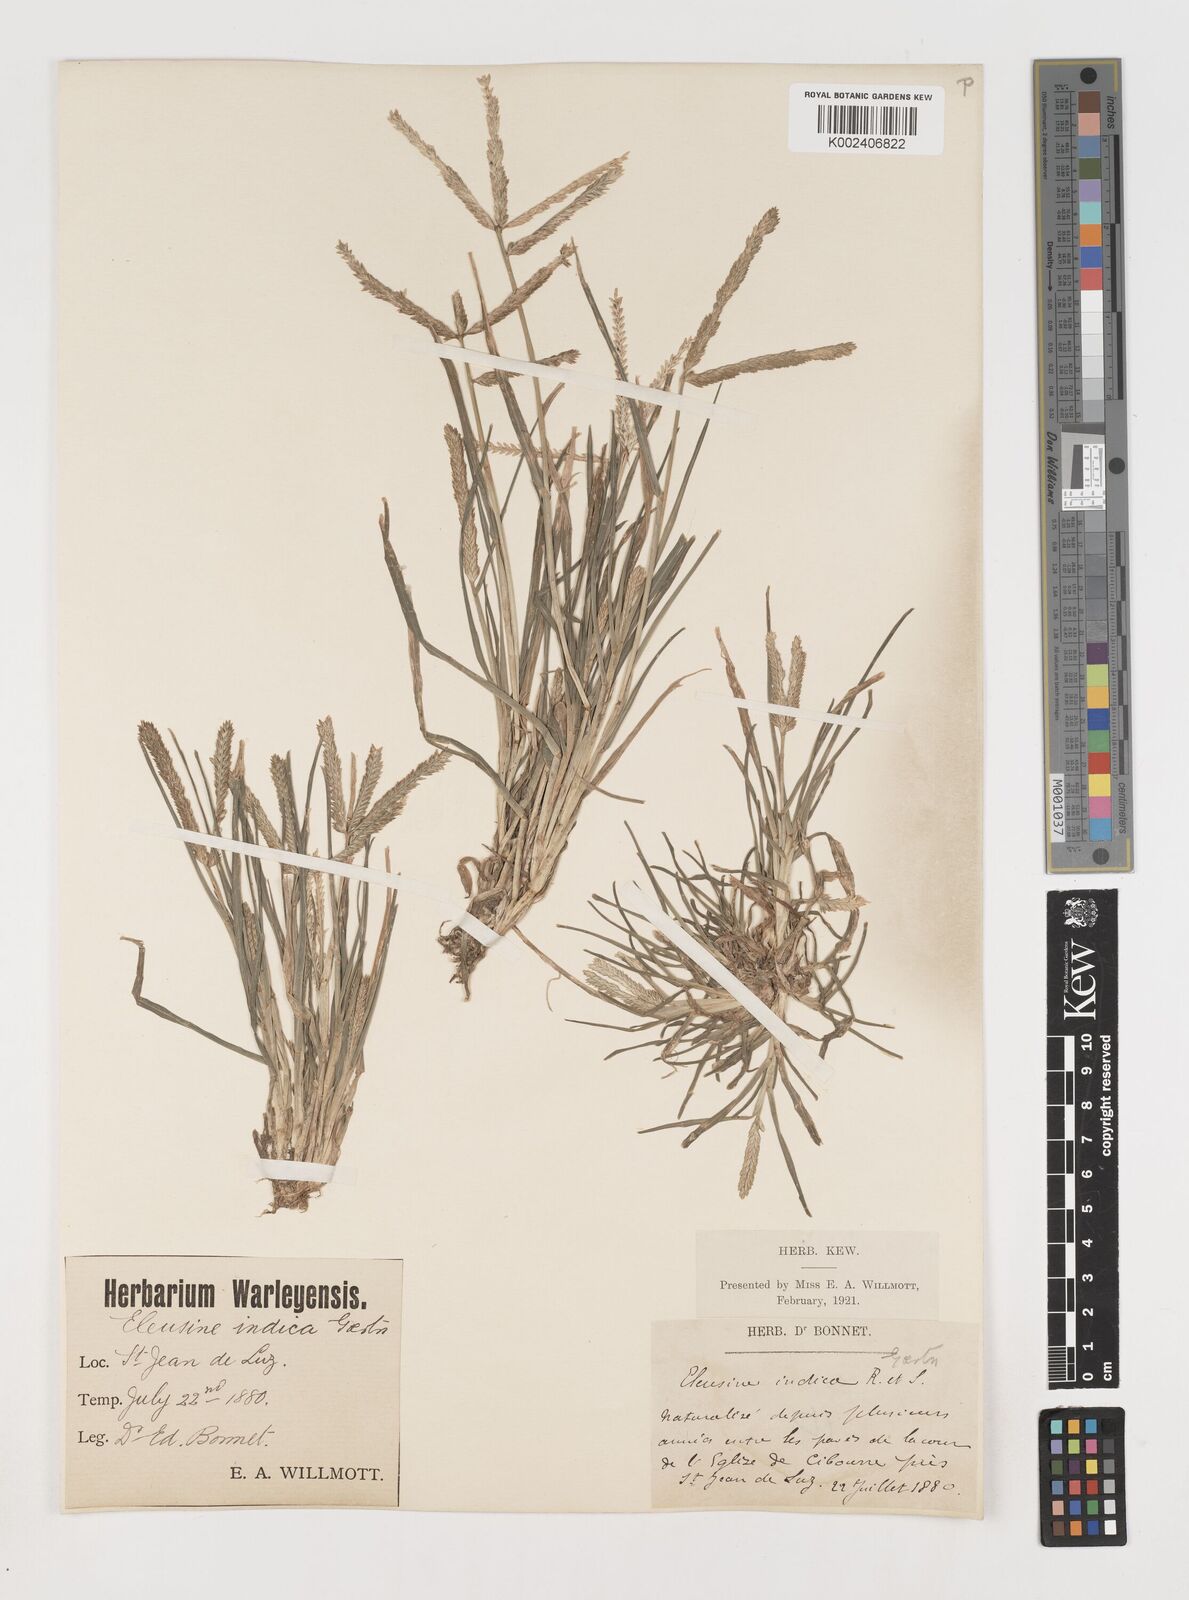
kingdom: Plantae
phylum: Tracheophyta
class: Liliopsida
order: Poales
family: Poaceae
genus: Eleusine
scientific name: Eleusine indica
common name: Yard-grass
